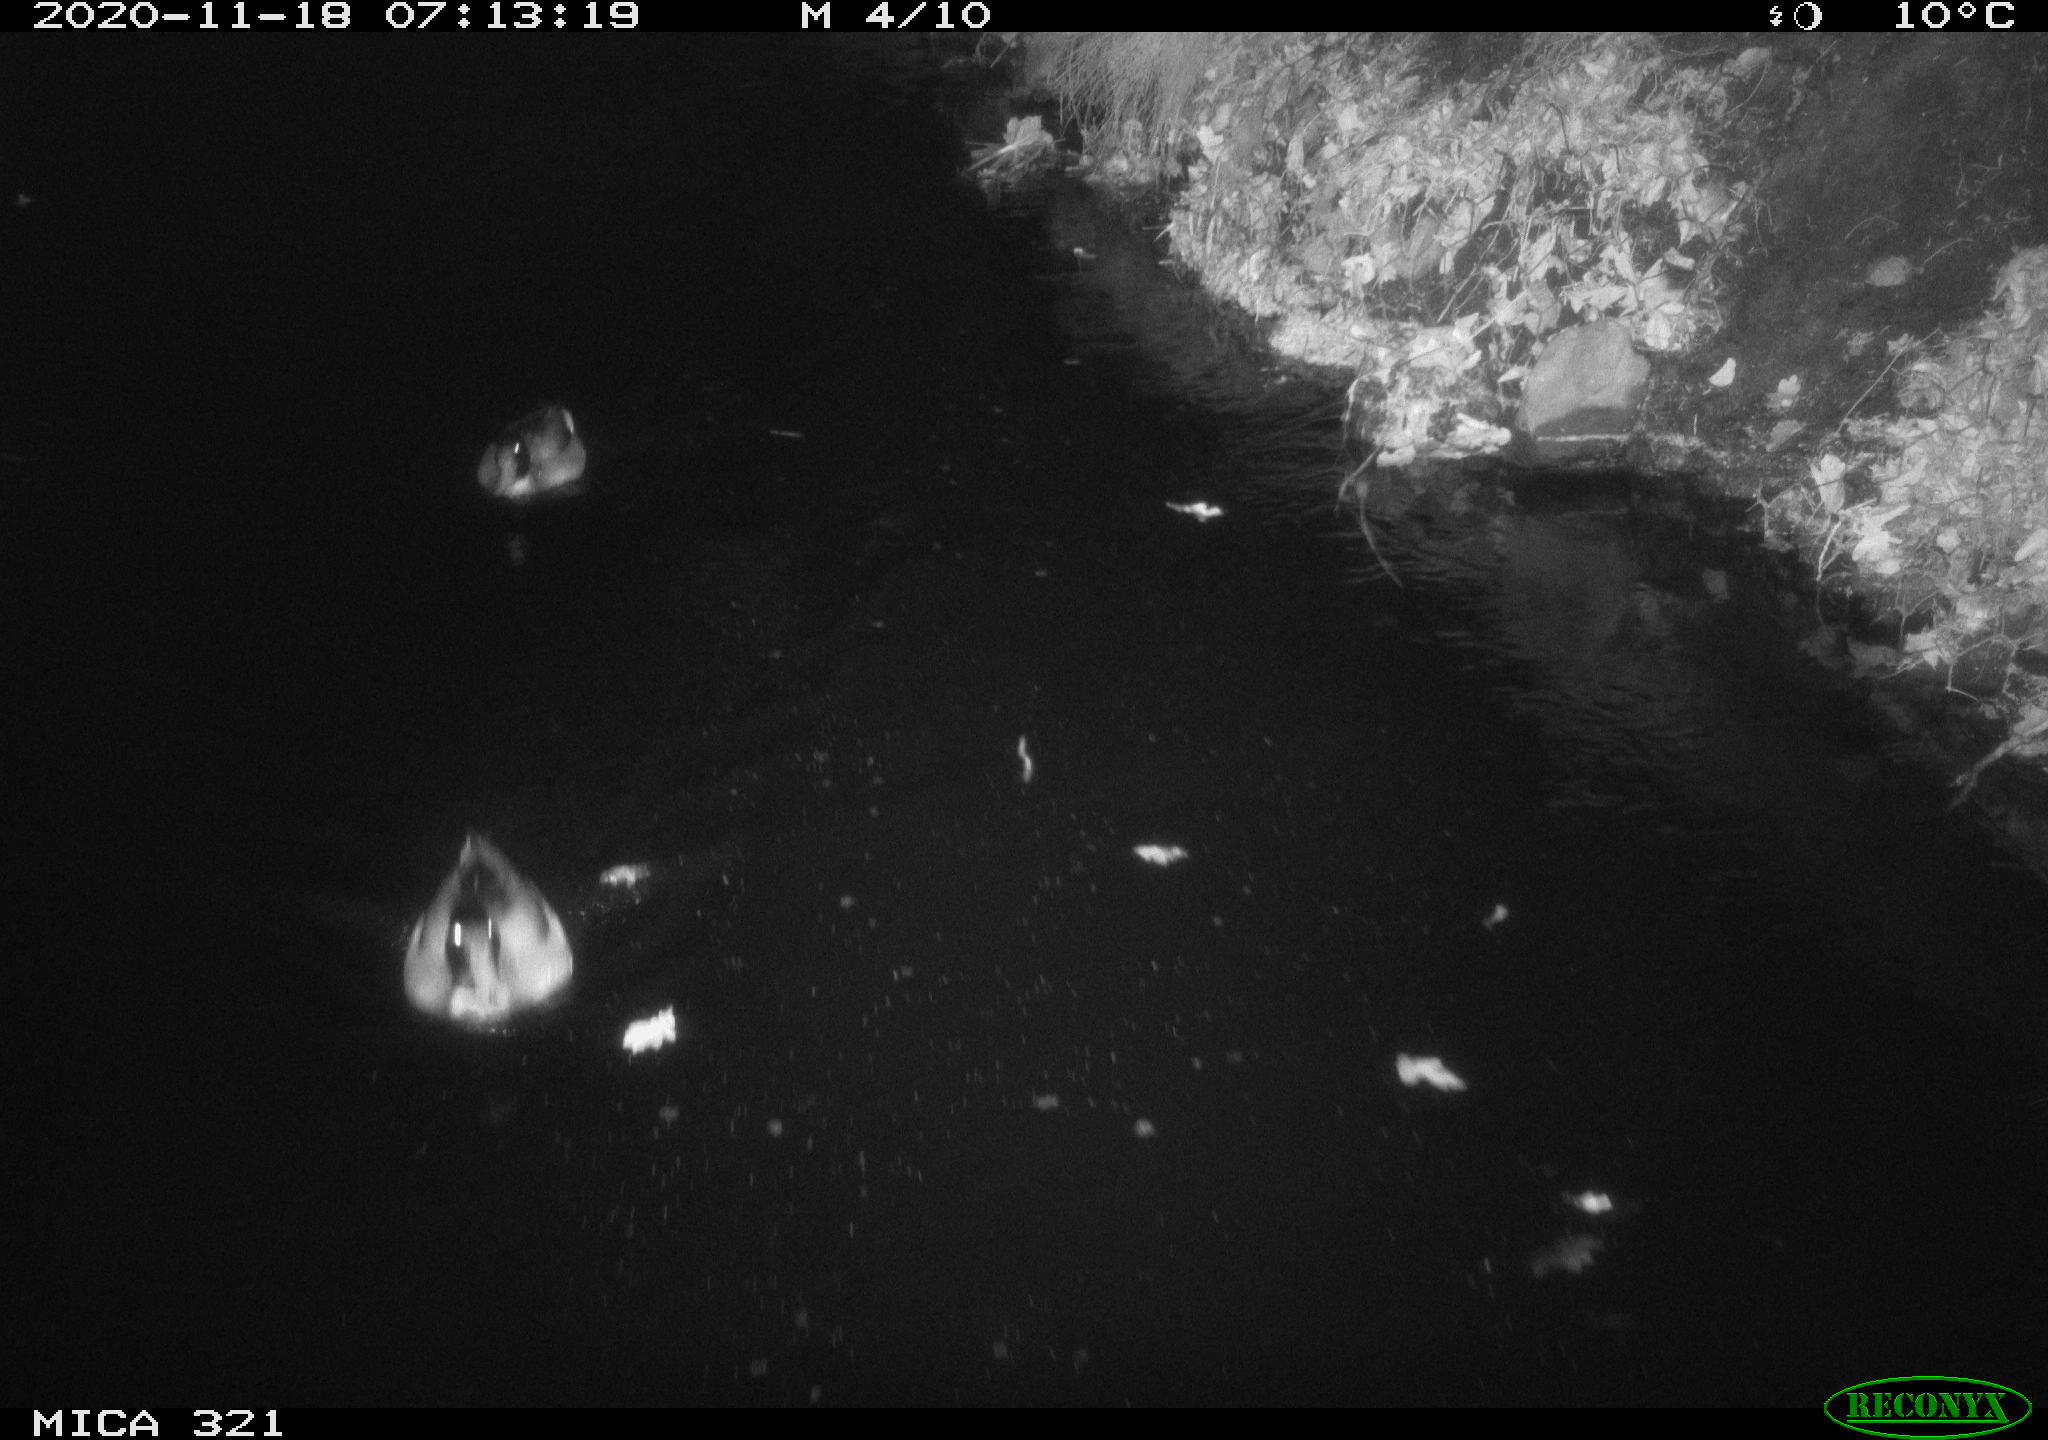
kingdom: Animalia
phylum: Chordata
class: Aves
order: Anseriformes
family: Anatidae
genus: Anas
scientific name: Anas platyrhynchos
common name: Mallard
